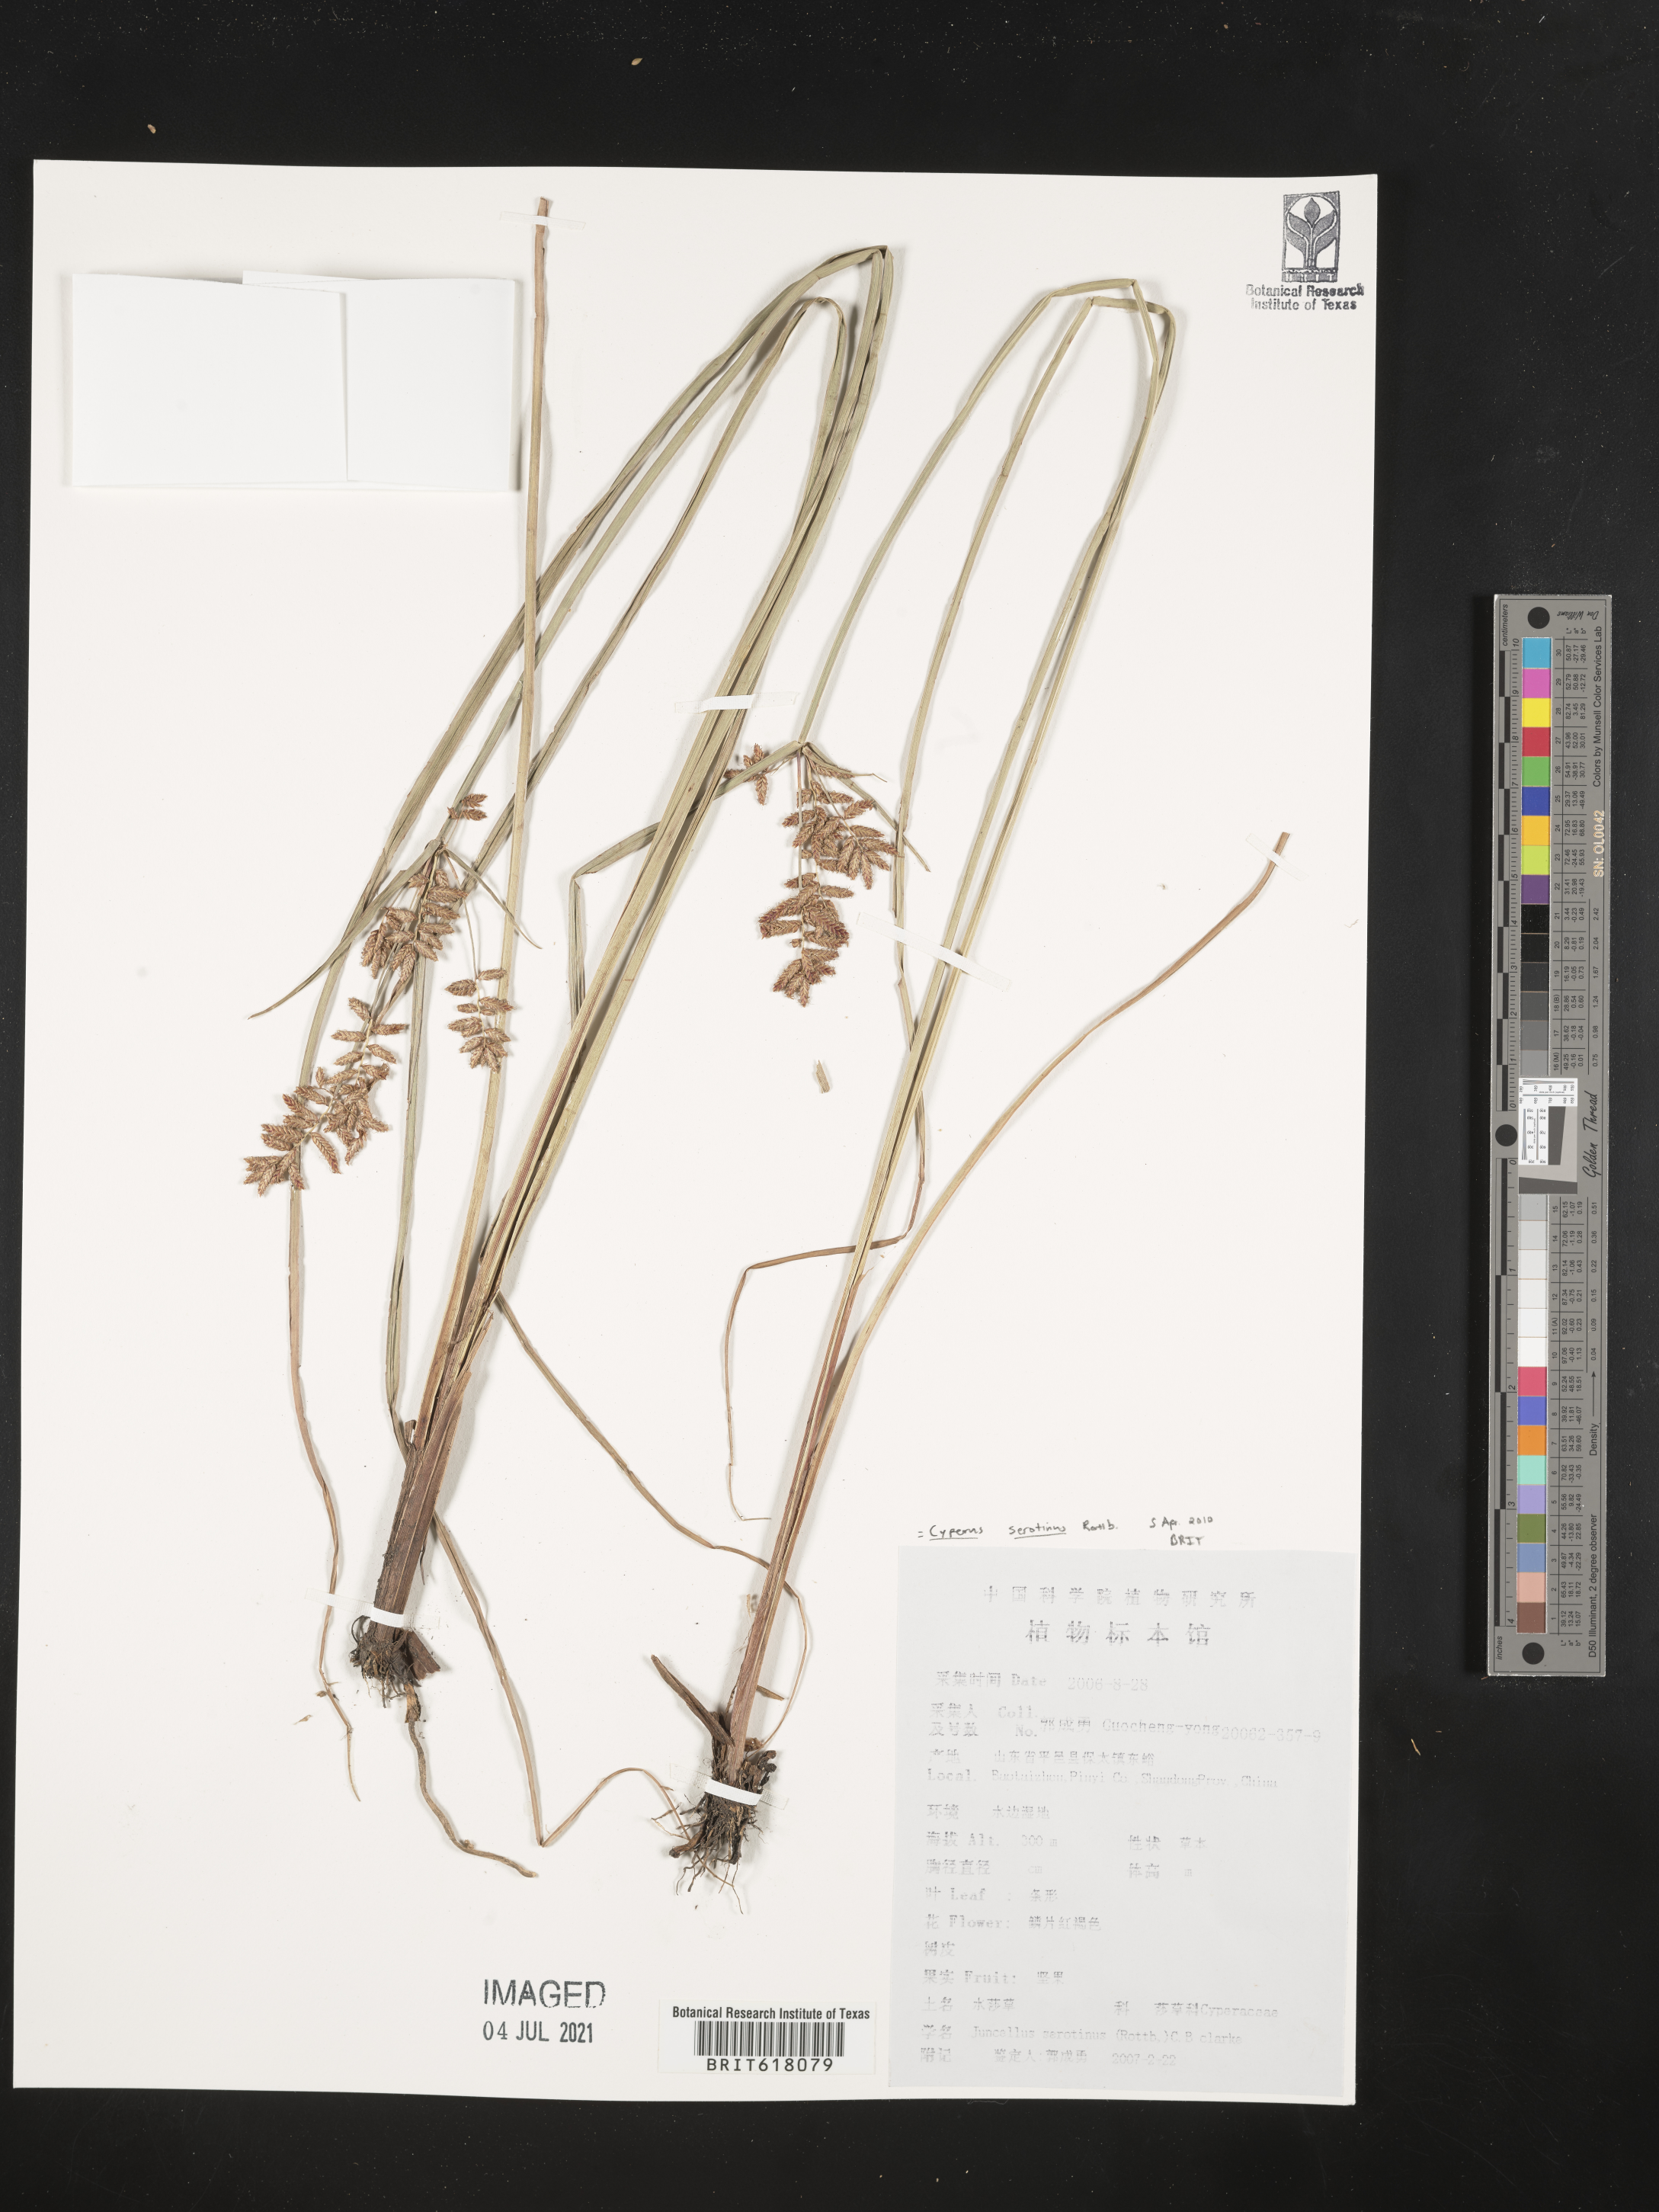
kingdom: Plantae
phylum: Tracheophyta
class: Liliopsida
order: Poales
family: Cyperaceae
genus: Cyperus
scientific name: Cyperus serotinus
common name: Tidalmarsh flatsedge
